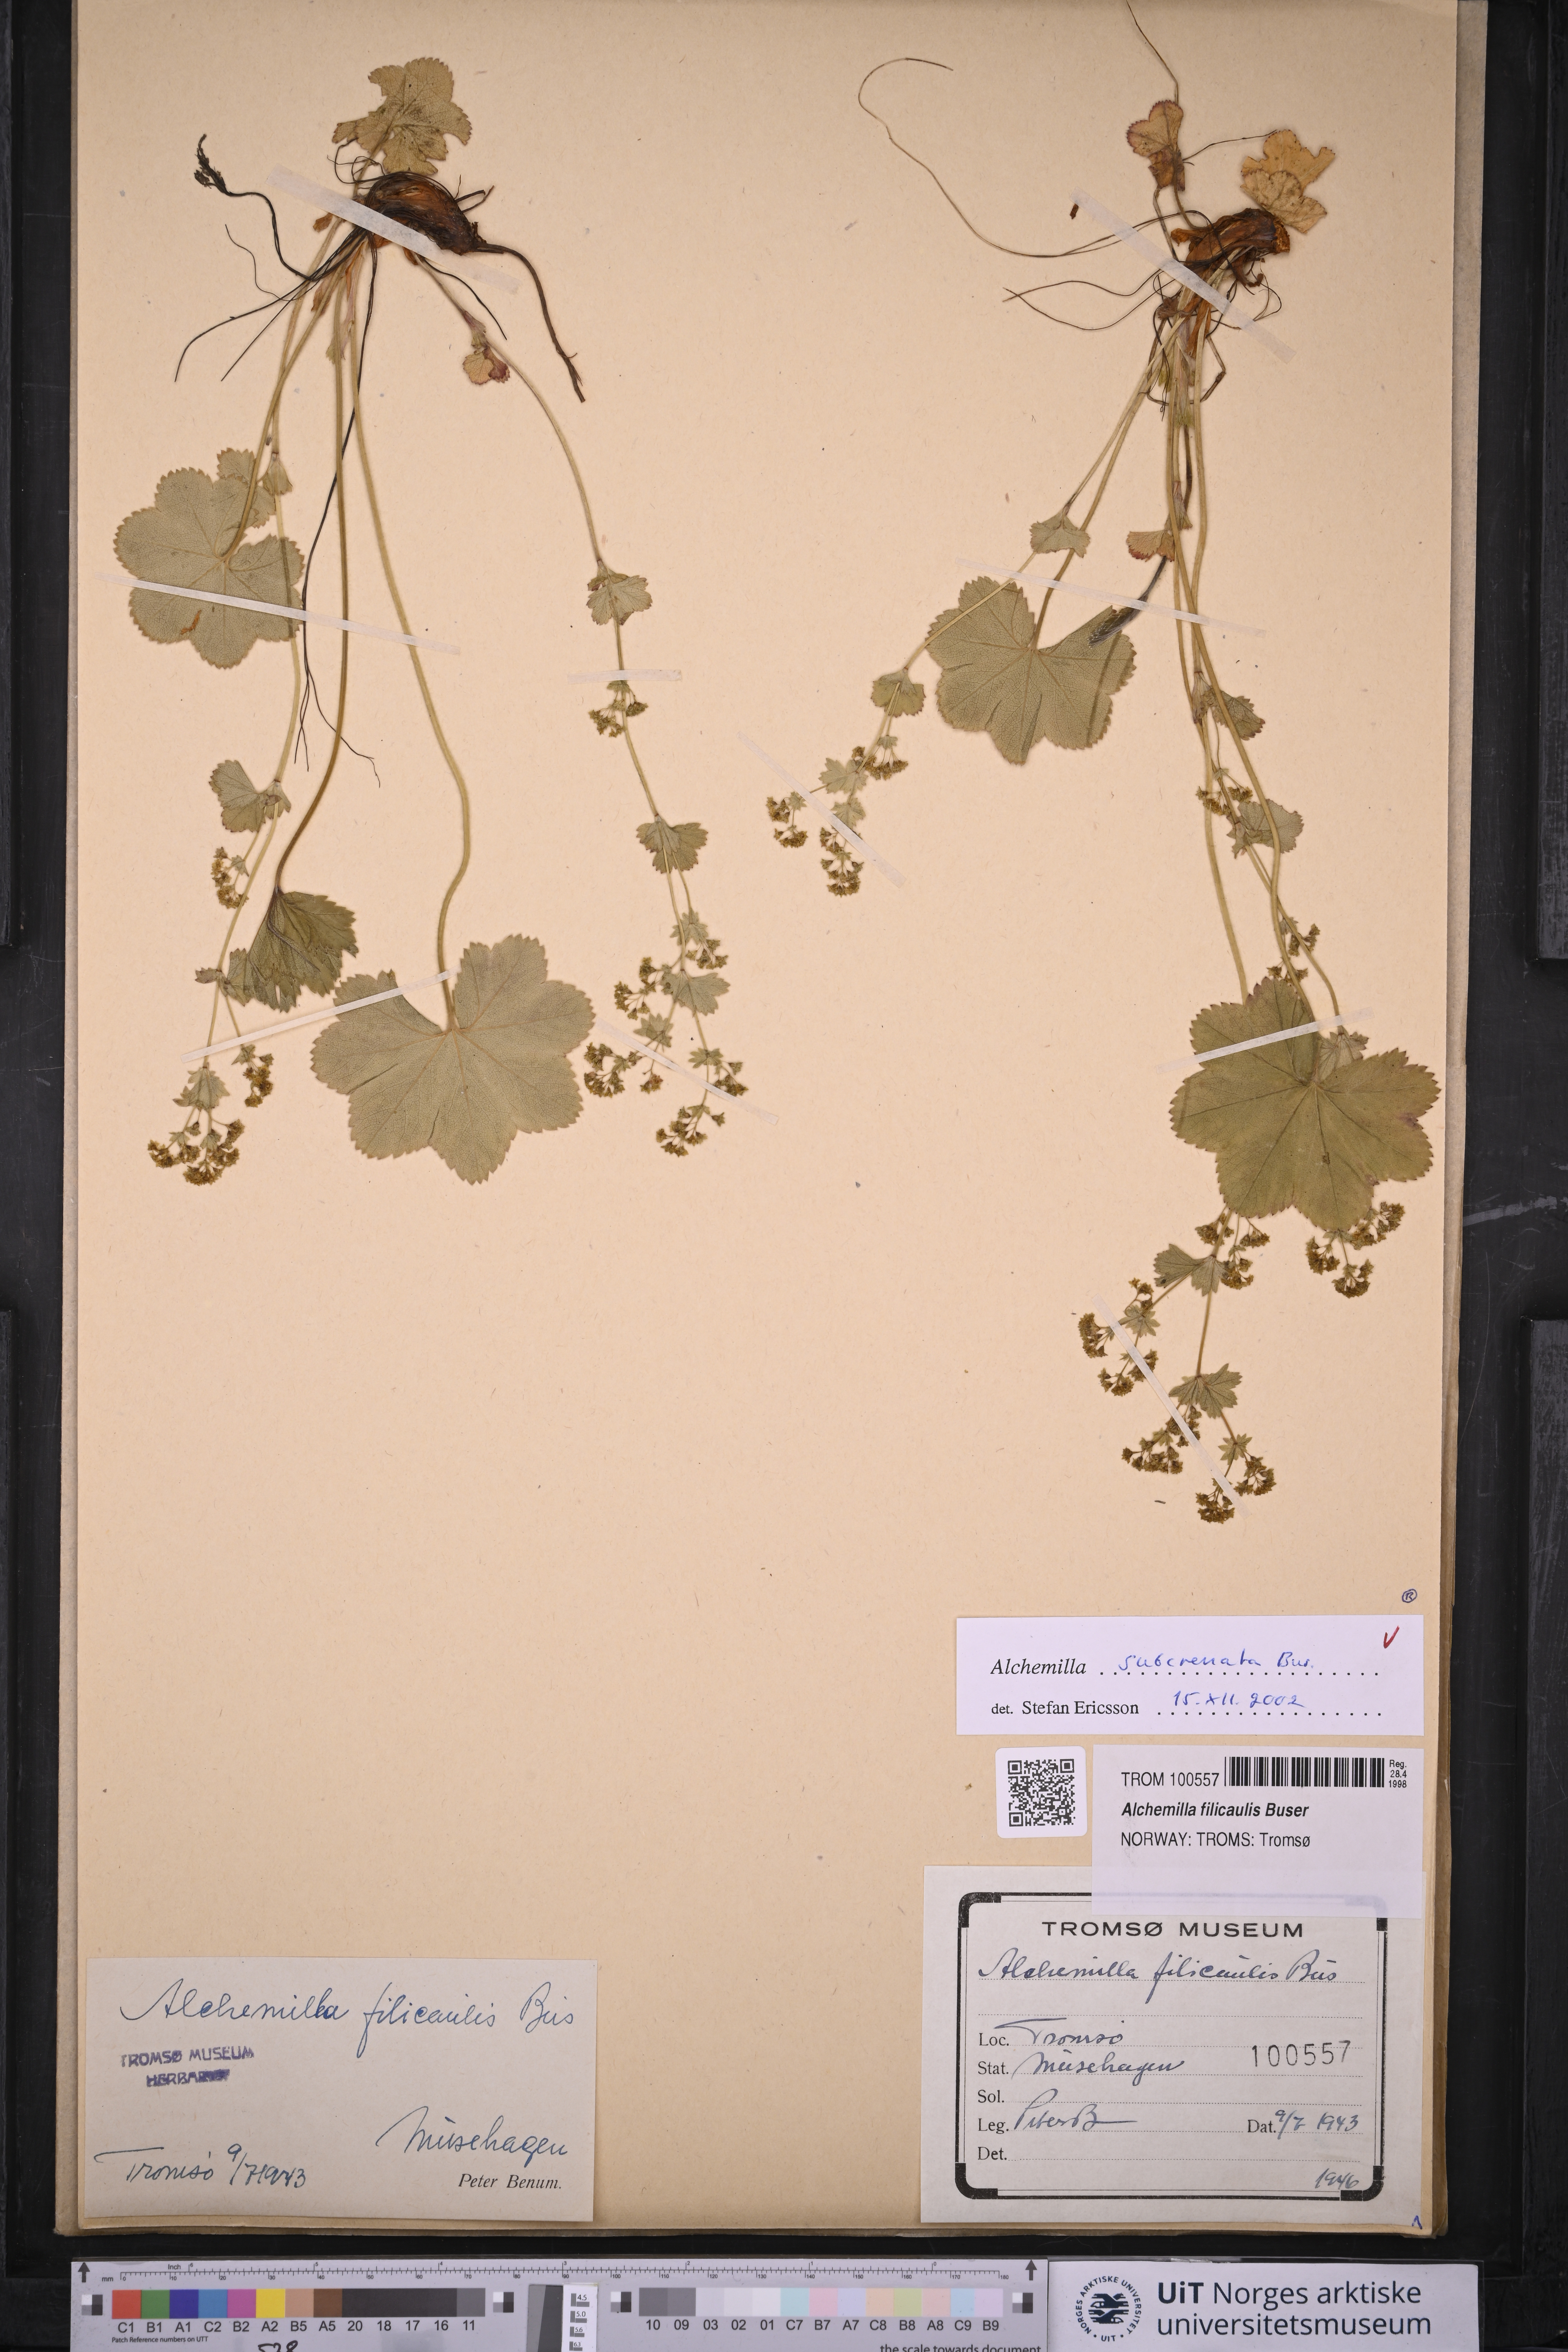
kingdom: Plantae
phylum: Tracheophyta
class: Magnoliopsida
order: Rosales
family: Rosaceae
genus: Alchemilla
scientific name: Alchemilla subcrenata
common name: Broadtooth lady's mantle
